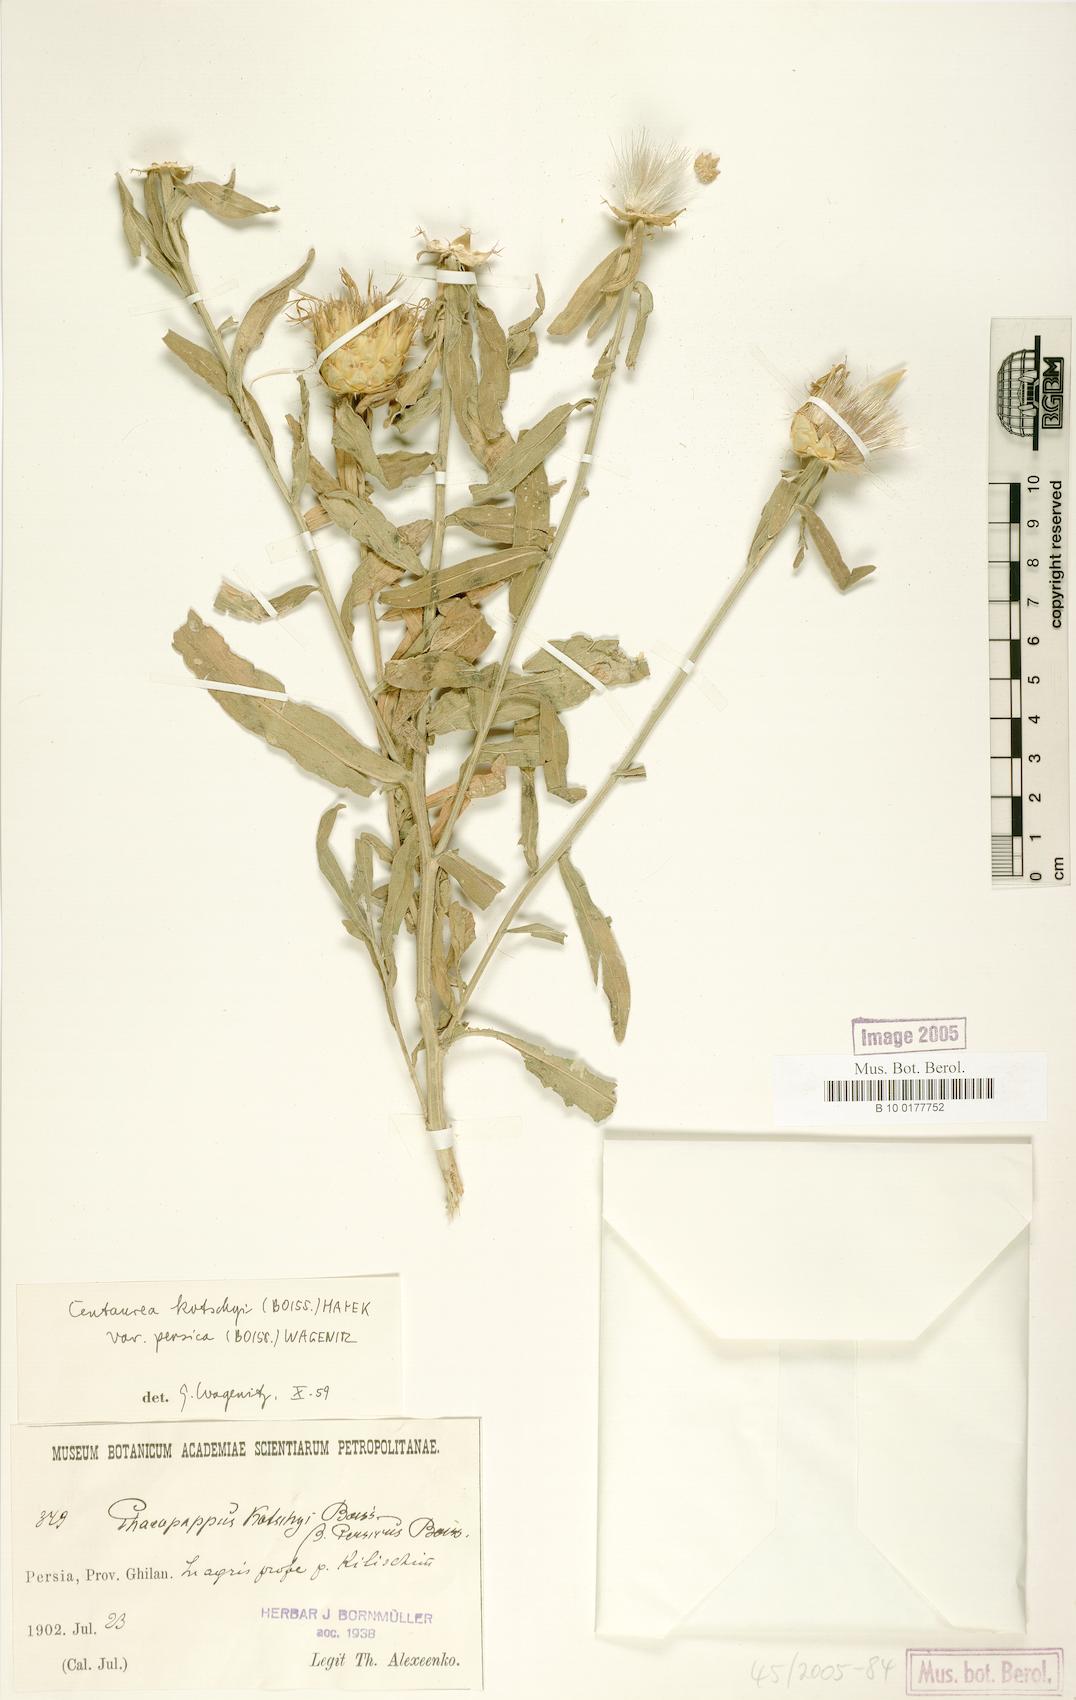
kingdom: Plantae
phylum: Tracheophyta
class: Magnoliopsida
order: Asterales
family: Asteraceae
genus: Centaurea
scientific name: Centaurea kotschyi
